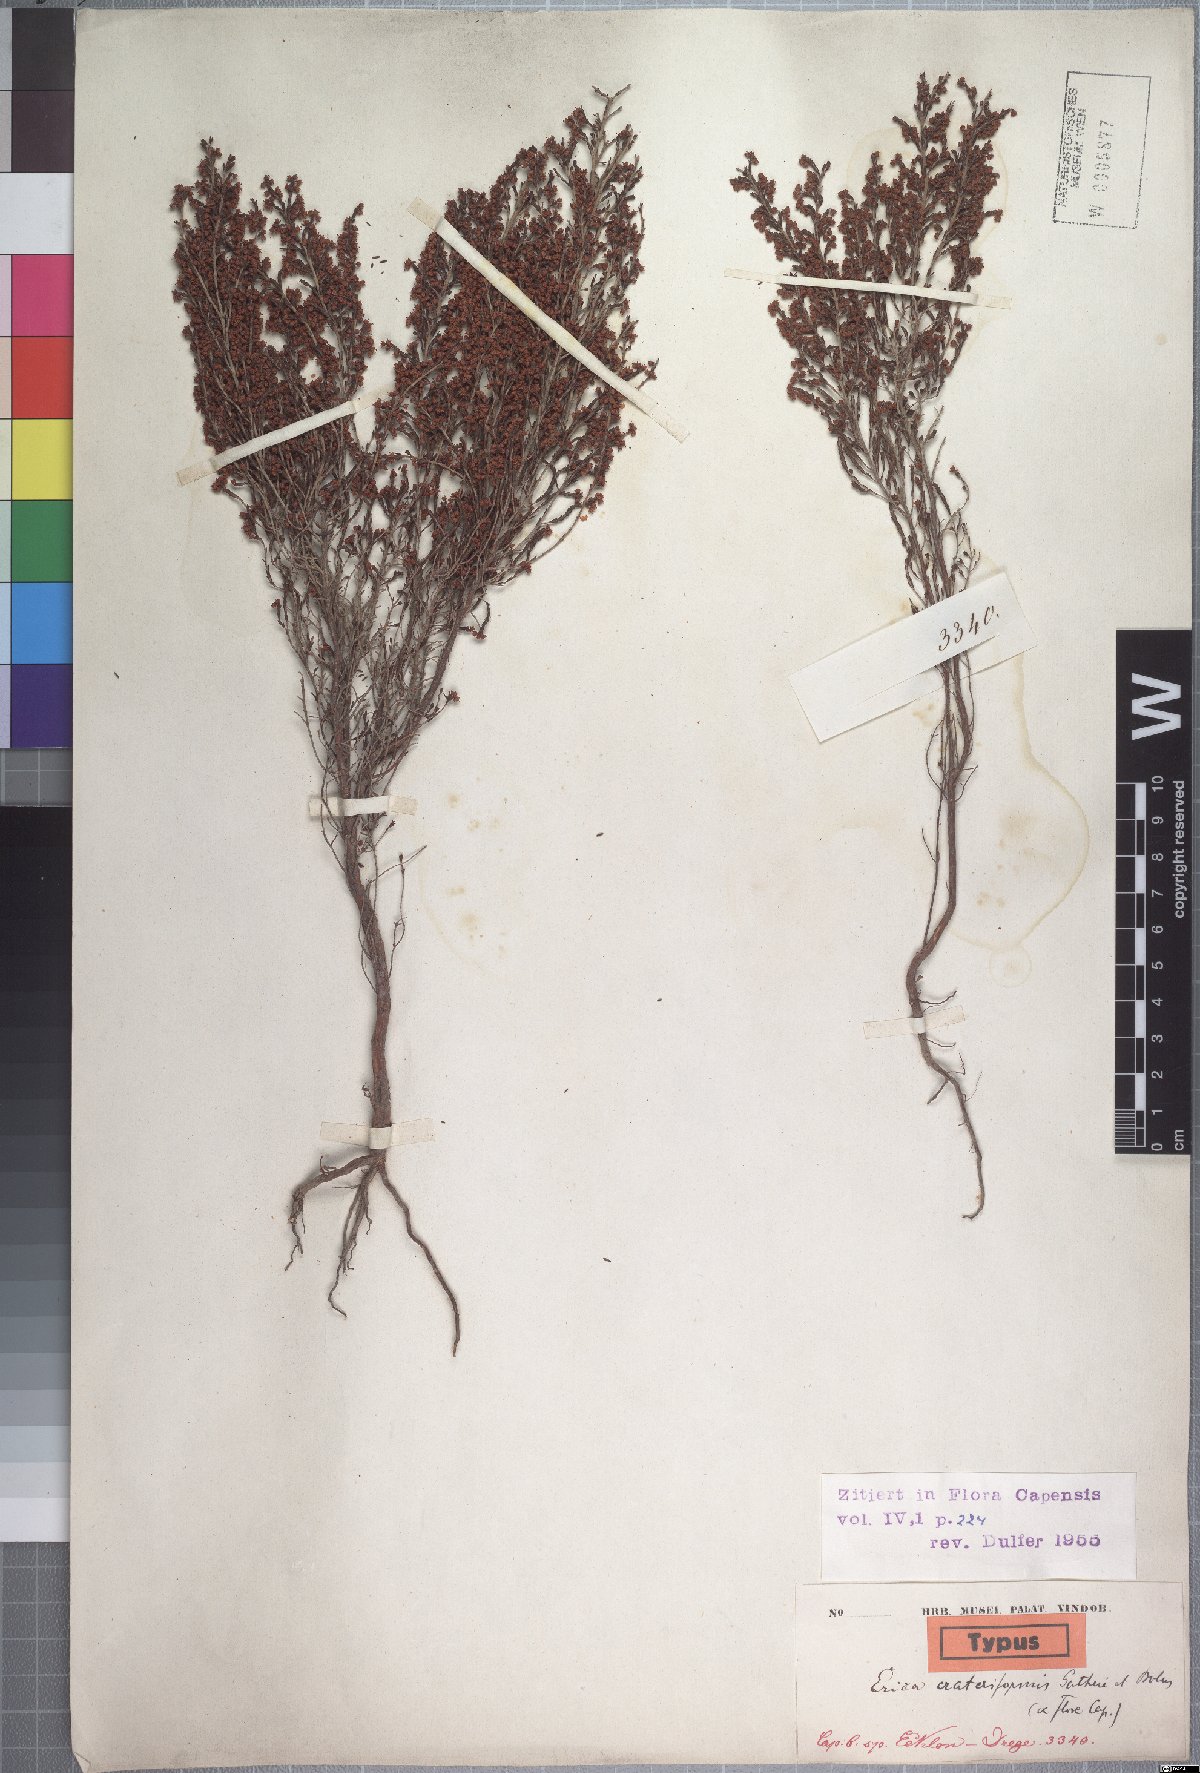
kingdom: Plantae
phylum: Tracheophyta
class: Magnoliopsida
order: Ericales
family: Ericaceae
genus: Erica
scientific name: Erica crateriformis
